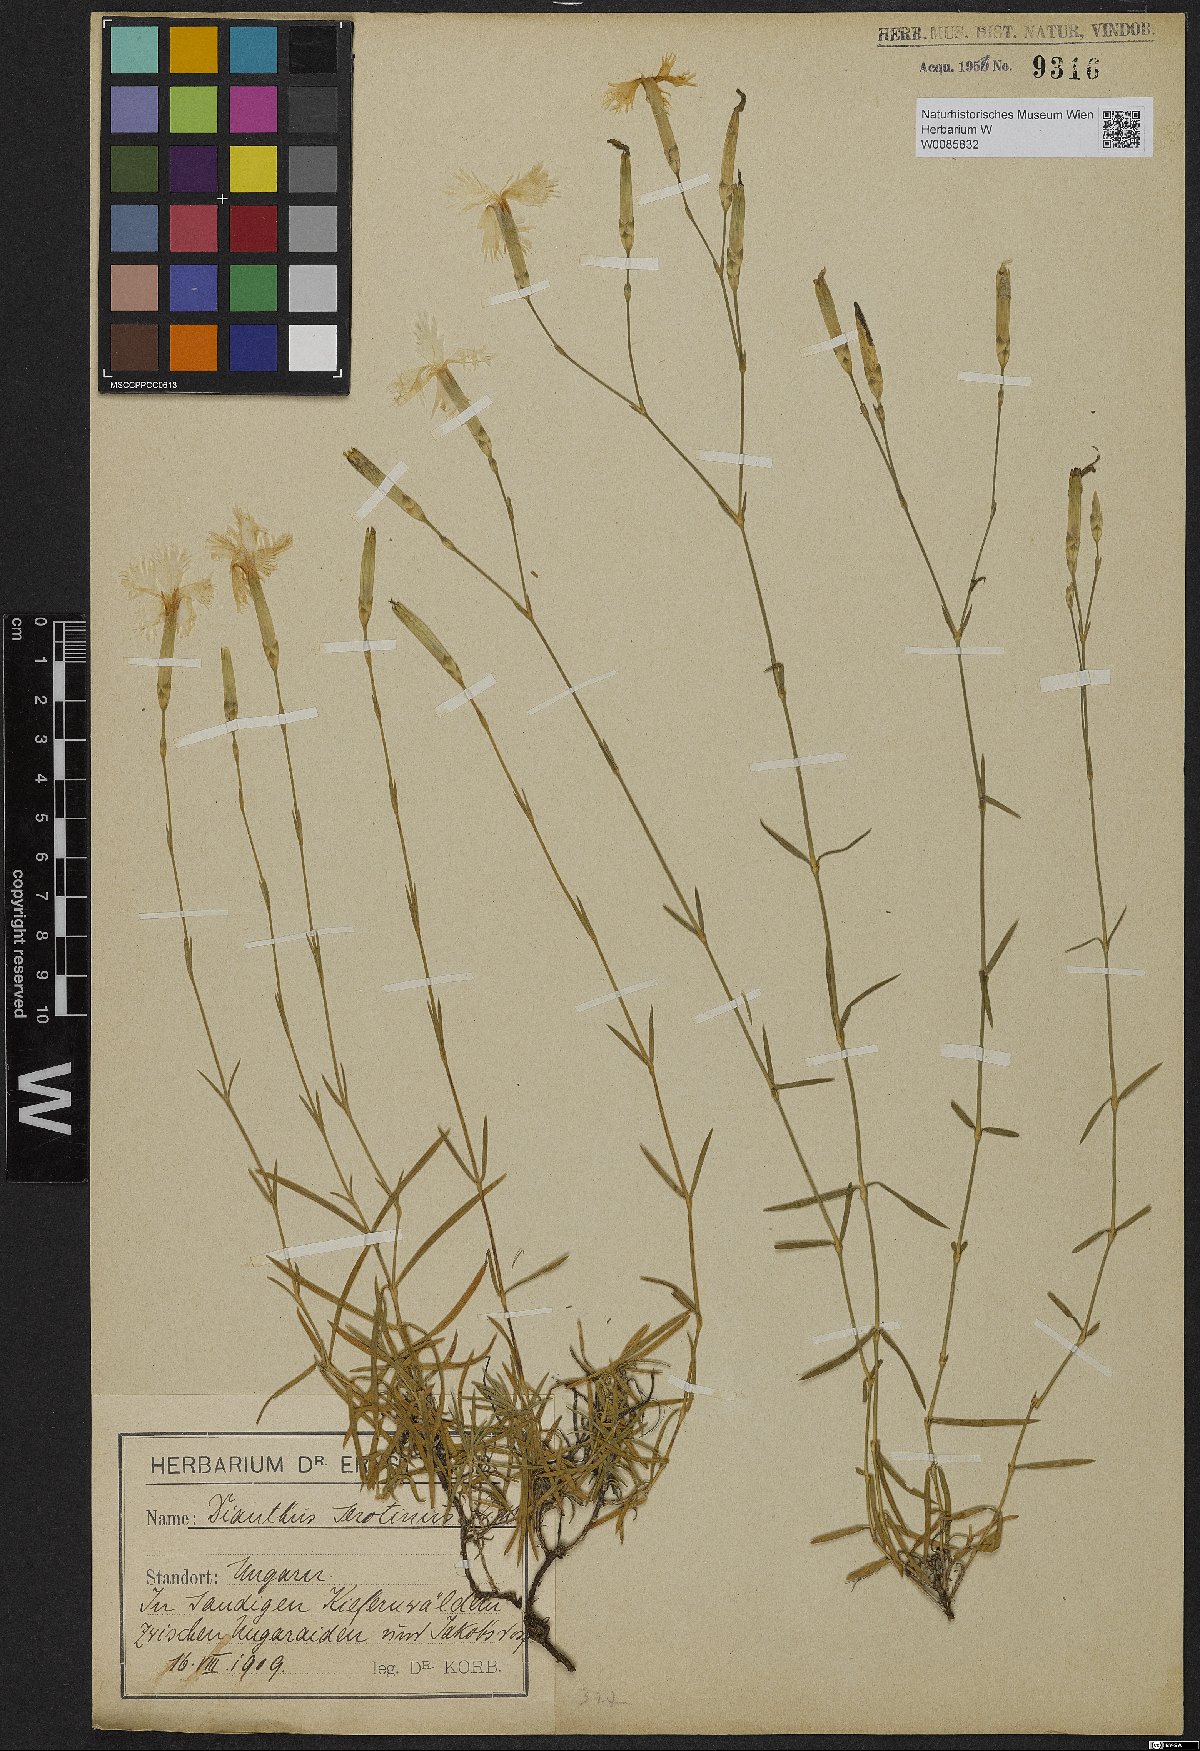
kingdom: Plantae
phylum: Tracheophyta
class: Magnoliopsida
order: Caryophyllales
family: Caryophyllaceae
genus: Dianthus
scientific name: Dianthus serotinus
